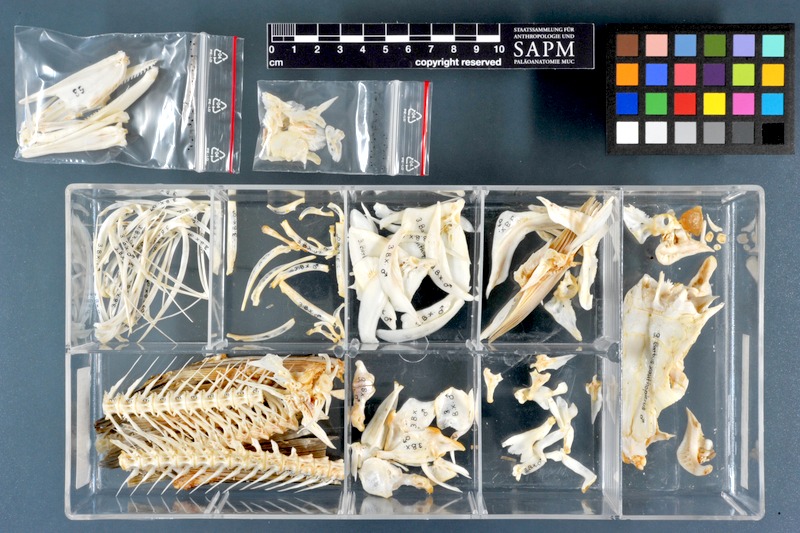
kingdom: Animalia
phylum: Chordata
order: Cypriniformes
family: Cyprinidae
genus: Luciobarbus
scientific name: Luciobarbus xanthopterus
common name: Yellowfin barbel
